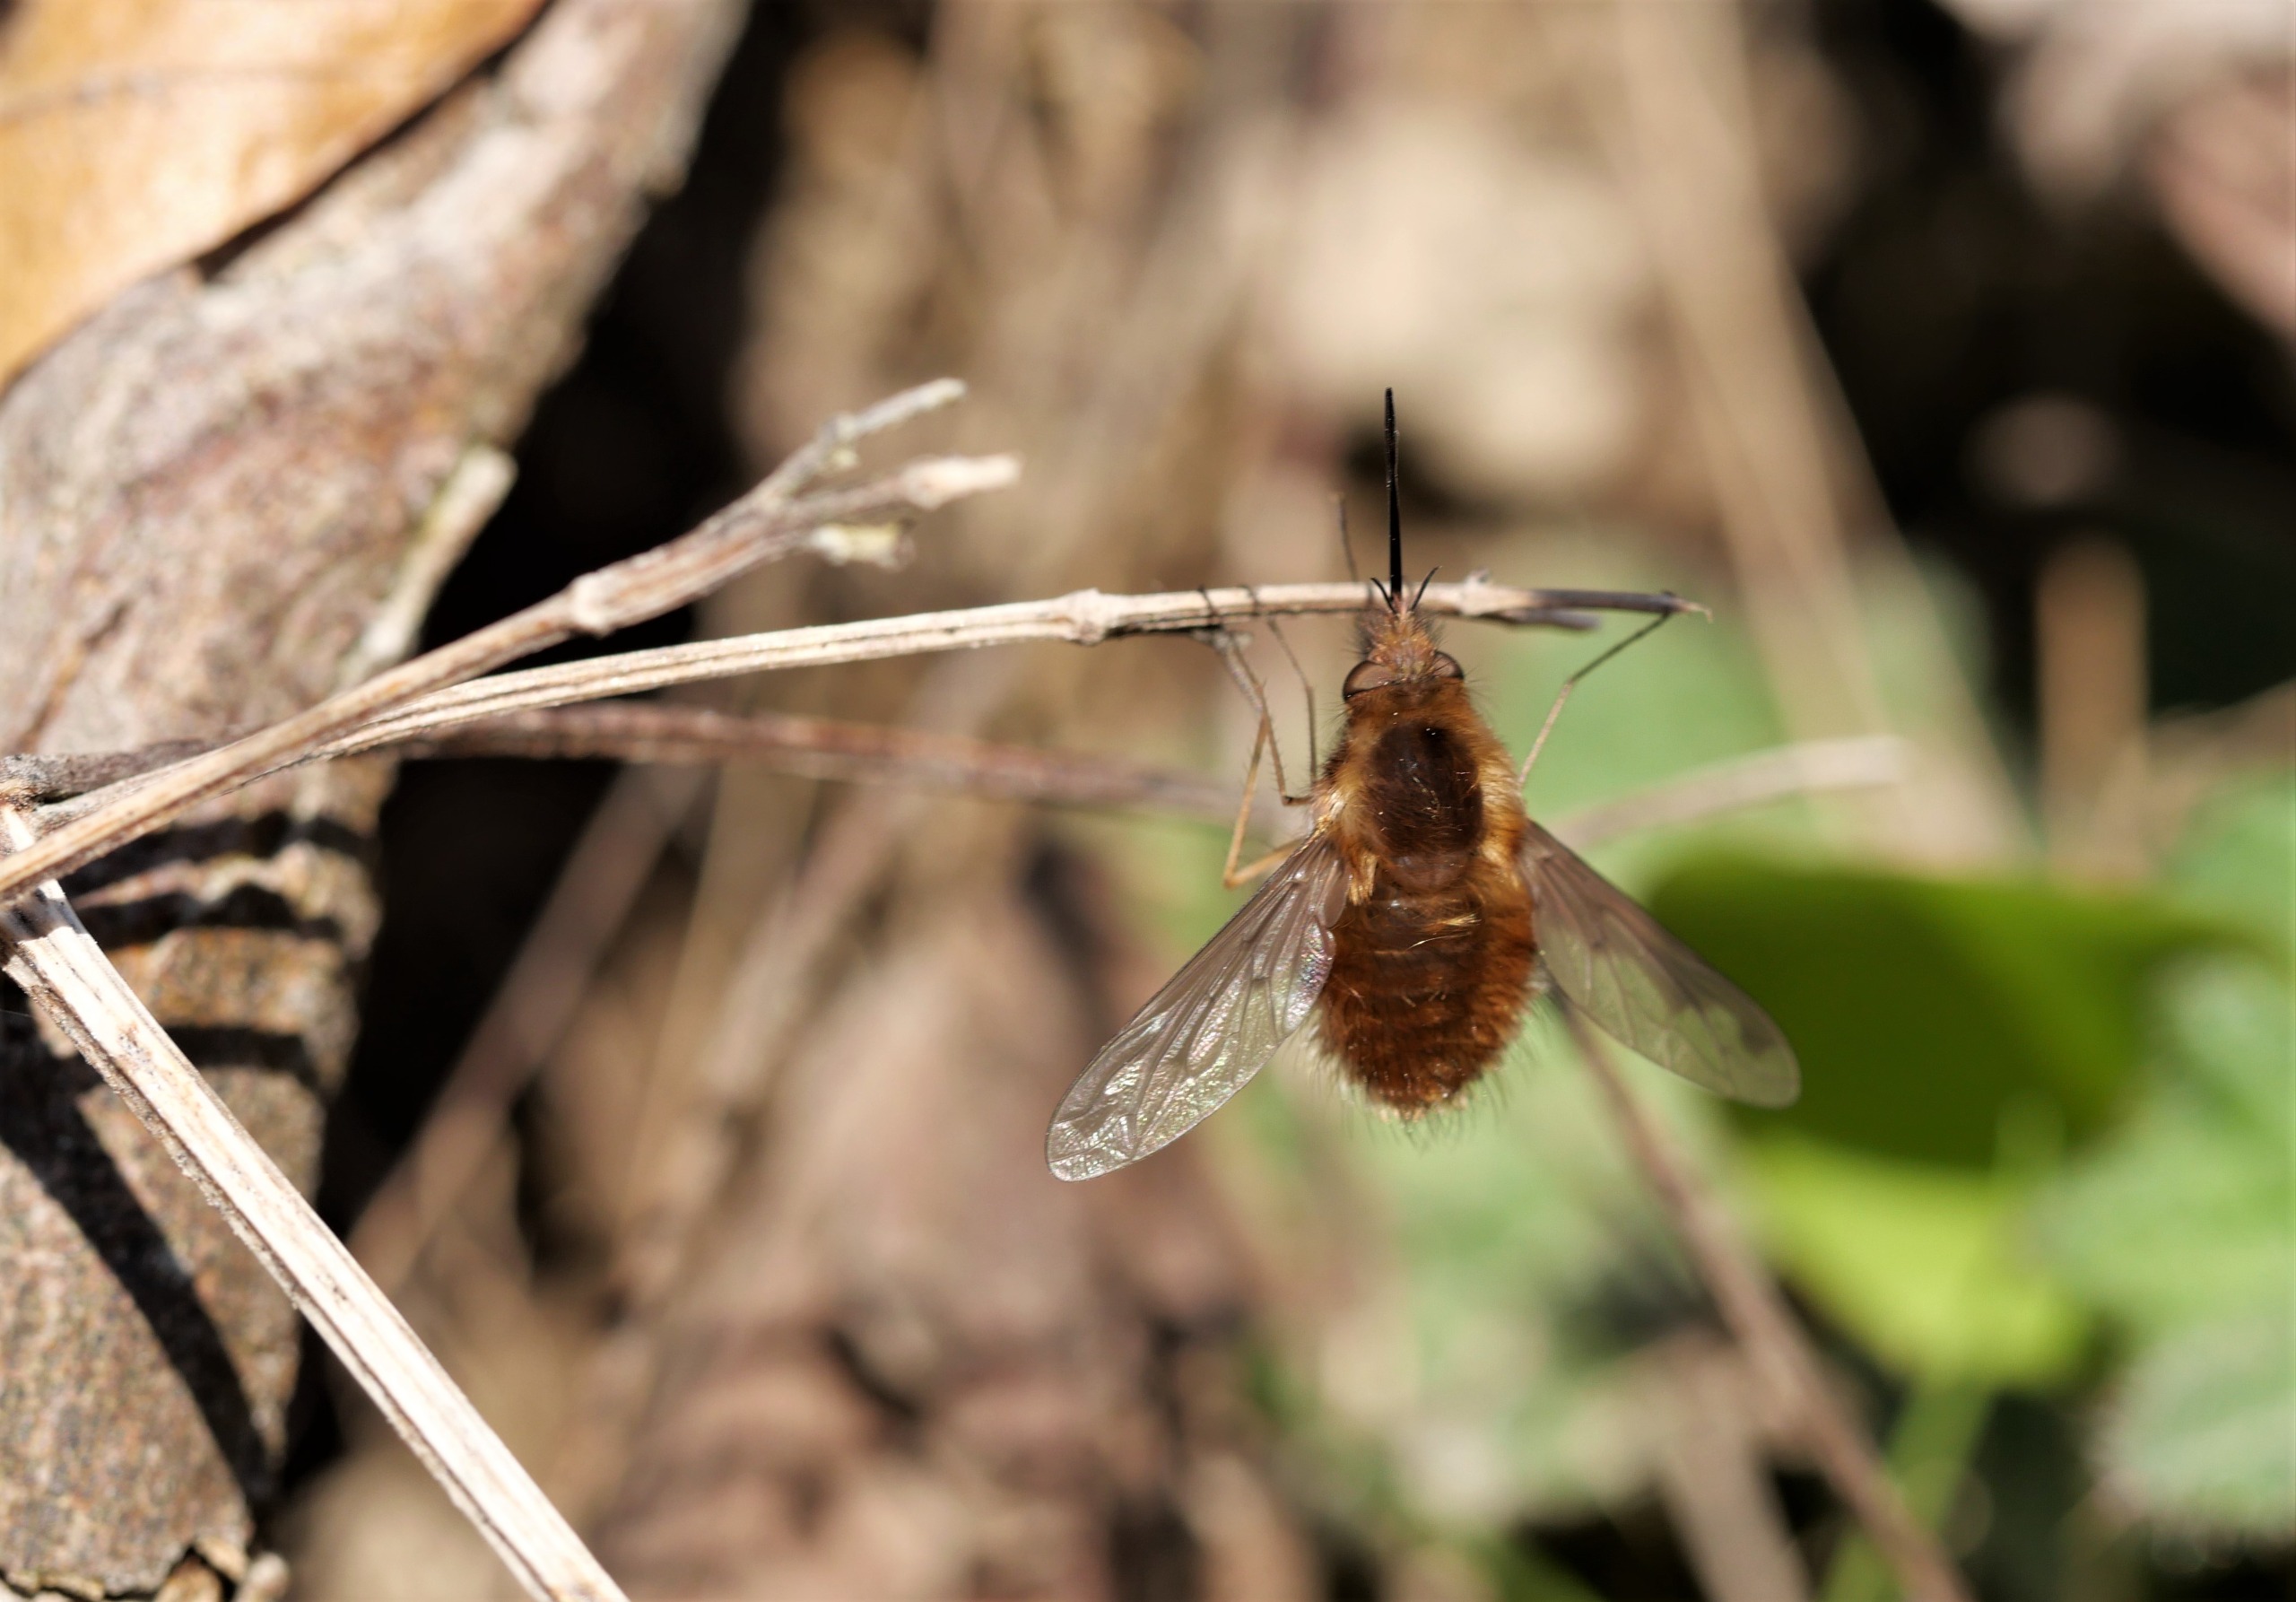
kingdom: Animalia
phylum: Arthropoda
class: Insecta
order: Diptera
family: Bombyliidae
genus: Bombylius
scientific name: Bombylius major
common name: Stor humleflue
